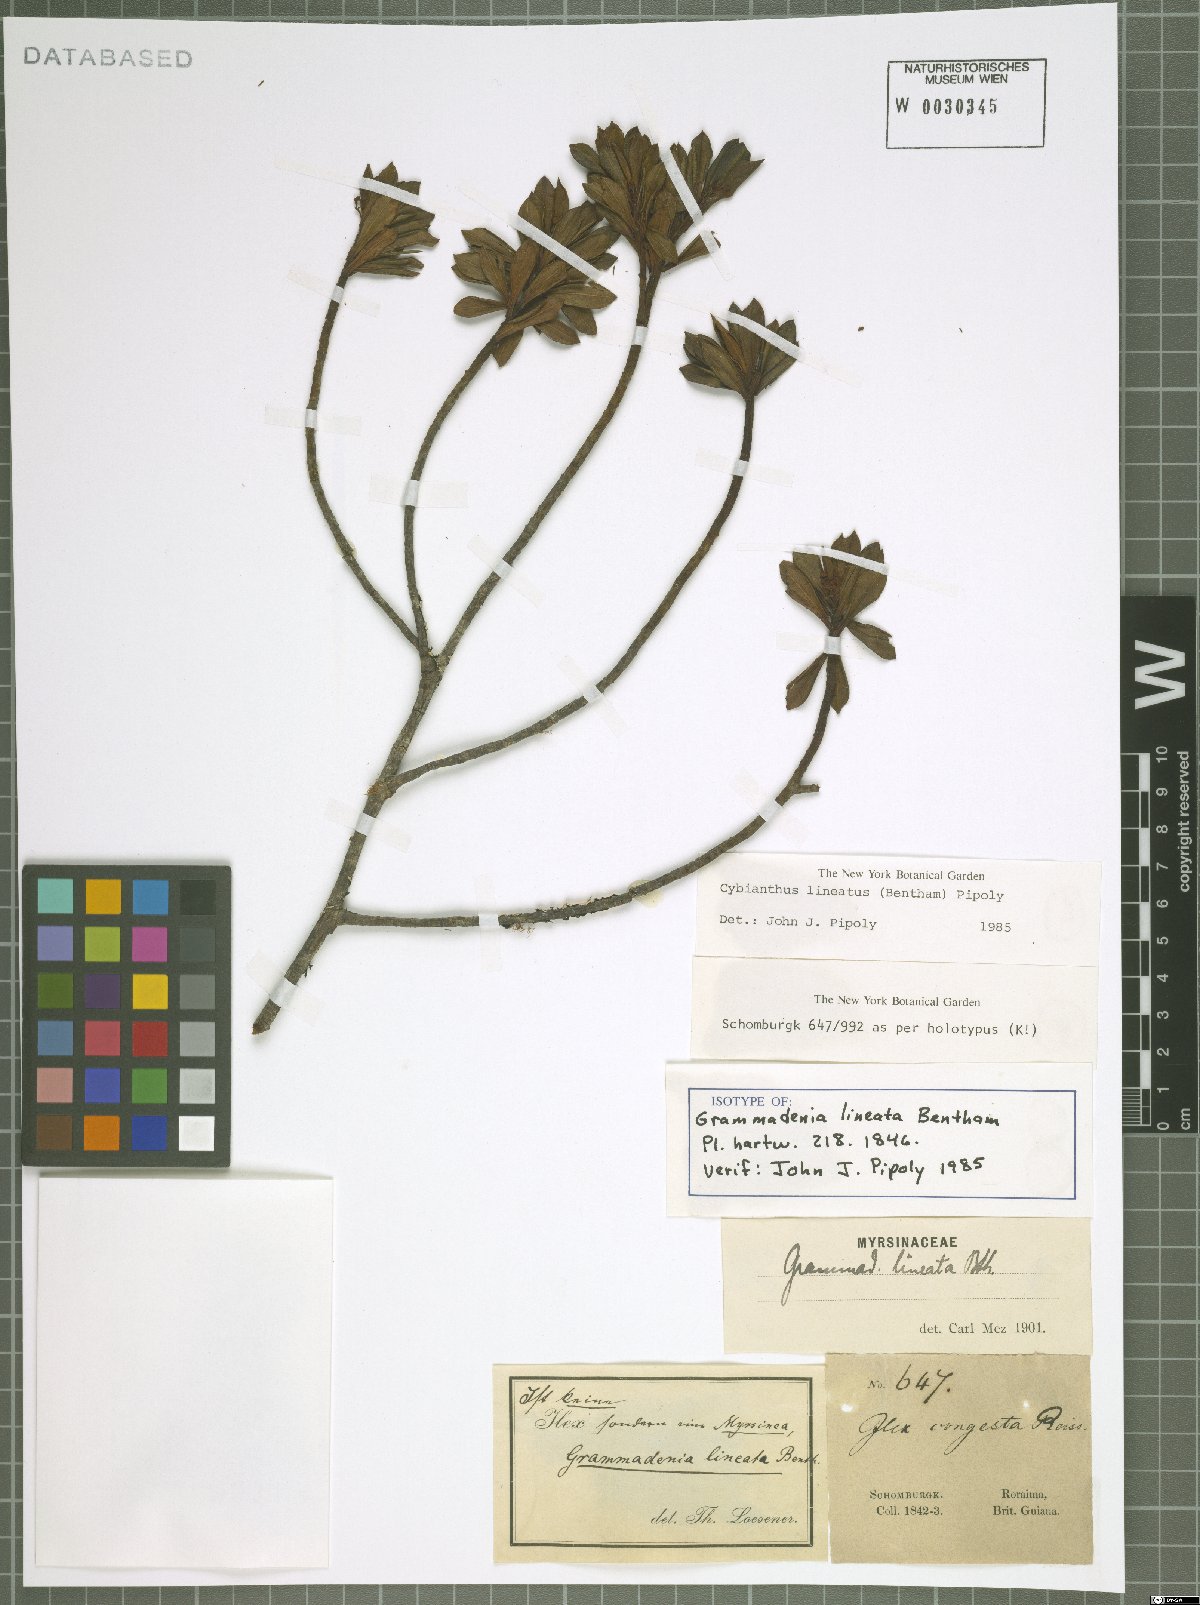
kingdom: Plantae
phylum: Tracheophyta
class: Magnoliopsida
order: Ericales
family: Primulaceae
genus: Cybianthus
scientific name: Cybianthus lineatus
